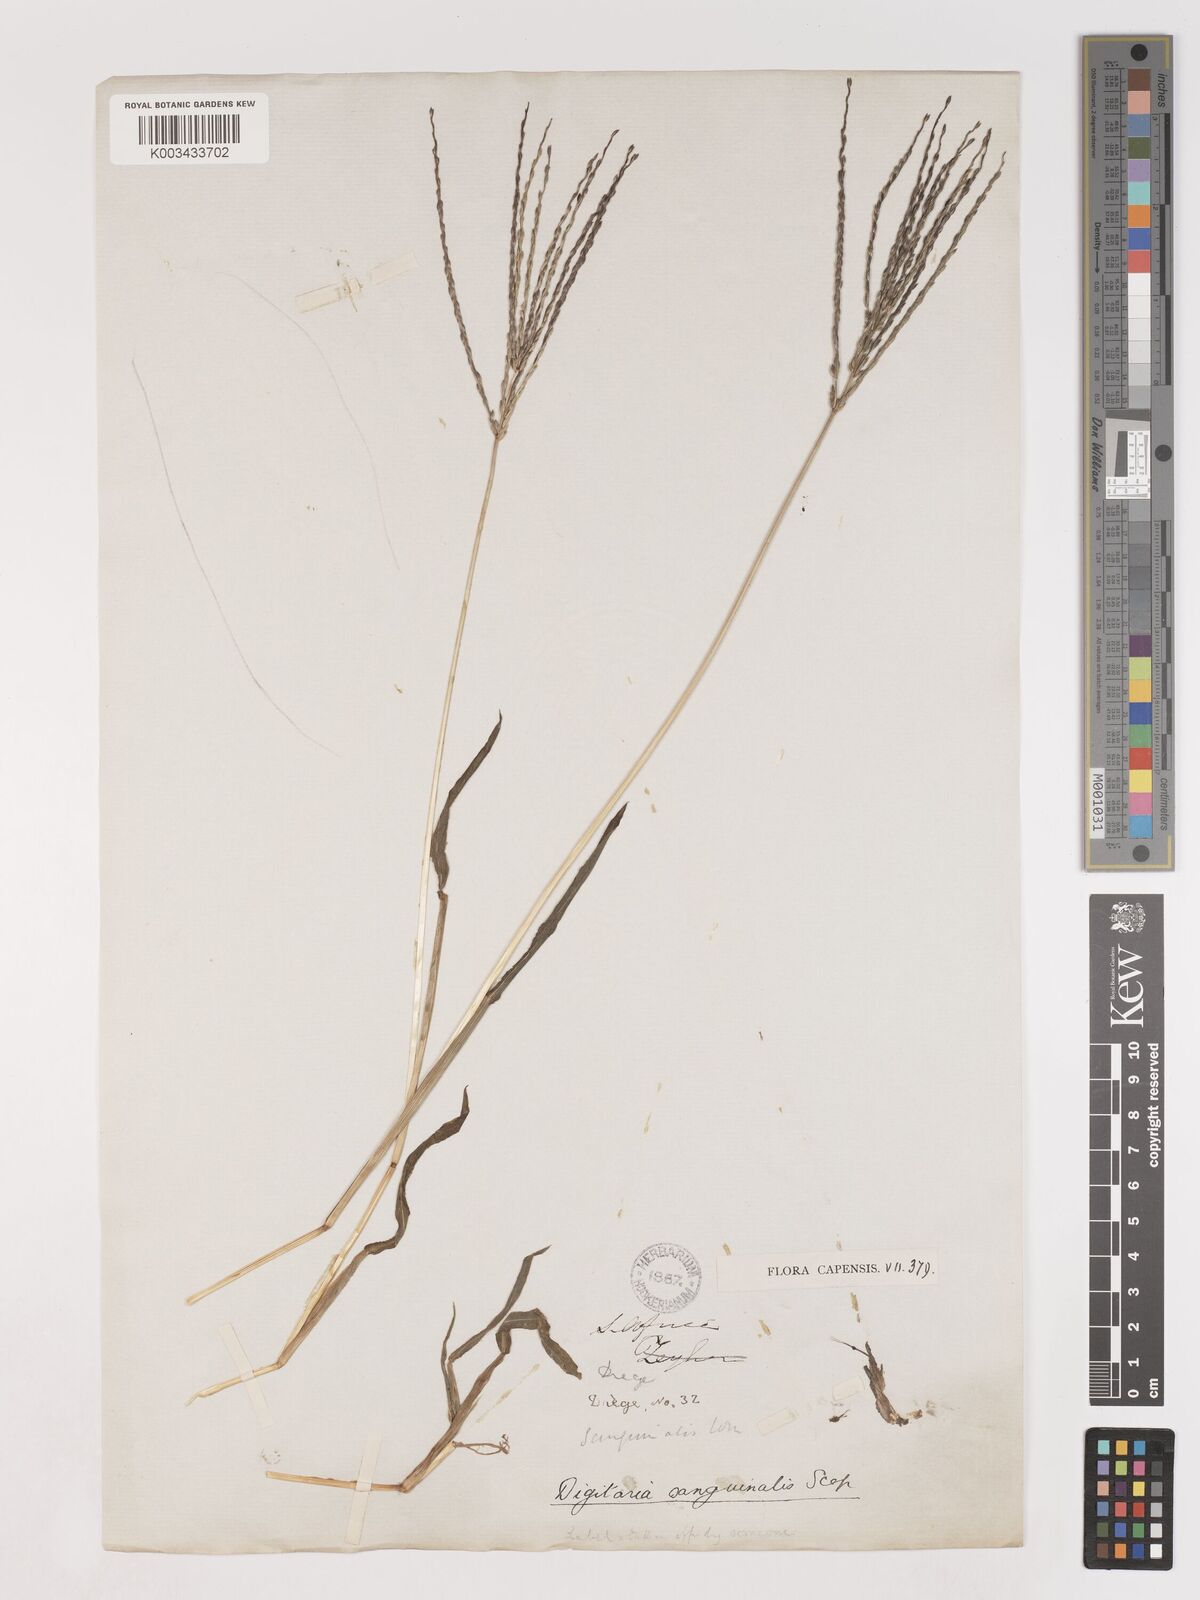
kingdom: Plantae
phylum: Tracheophyta
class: Liliopsida
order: Poales
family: Poaceae
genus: Digitaria
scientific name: Digitaria sanguinalis
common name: Hairy crabgrass
